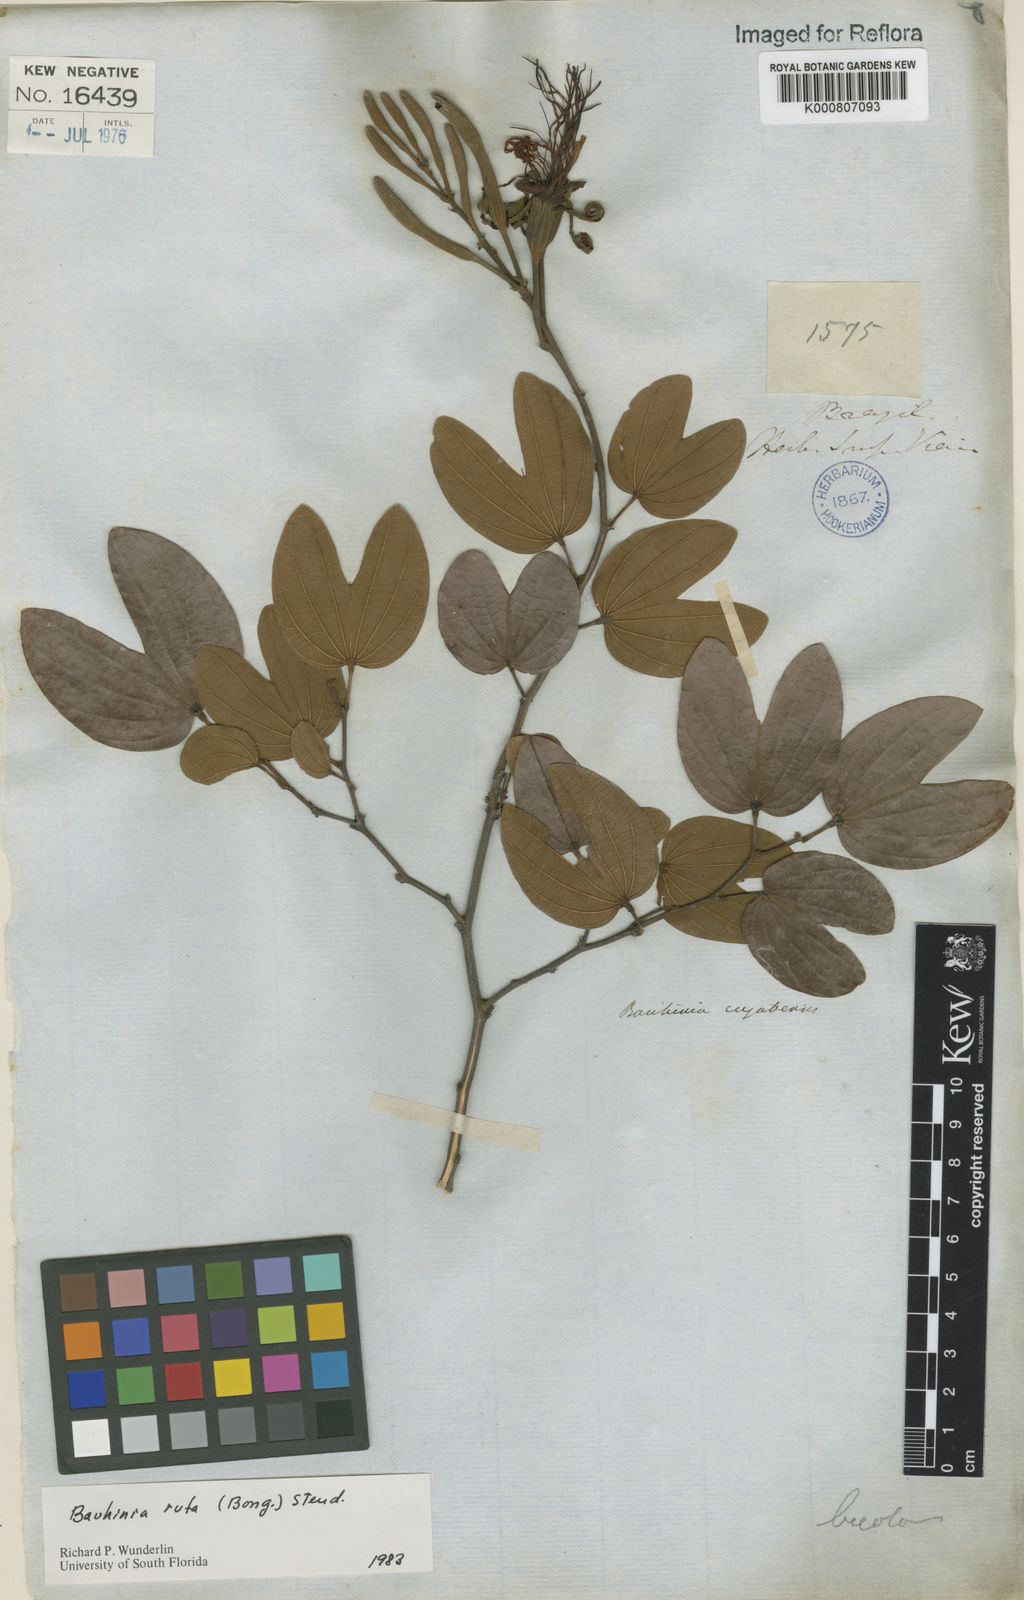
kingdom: Plantae
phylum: Tracheophyta
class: Magnoliopsida
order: Fabales
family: Fabaceae
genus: Bauhinia
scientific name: Bauhinia rufa
